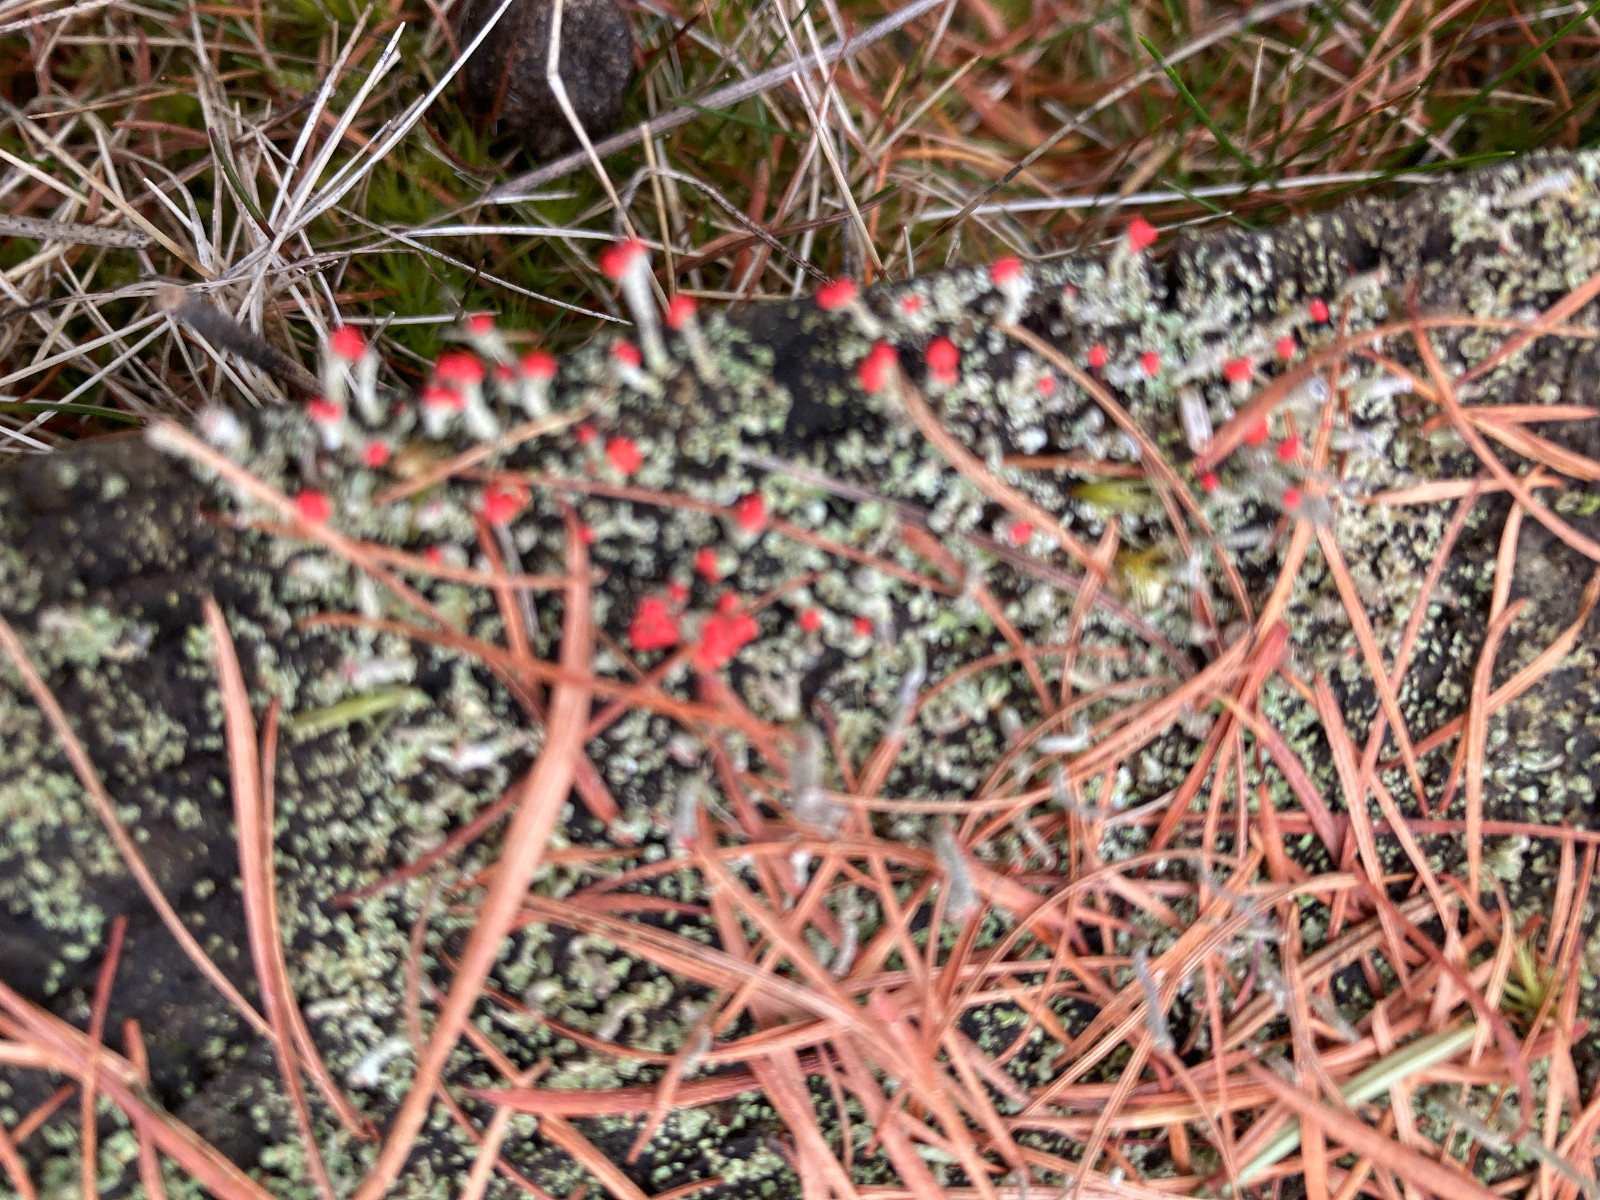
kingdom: Fungi
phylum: Ascomycota
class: Lecanoromycetes
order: Lecanorales
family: Cladoniaceae
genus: Cladonia
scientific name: Cladonia macilenta
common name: indsvunden bægerlav
